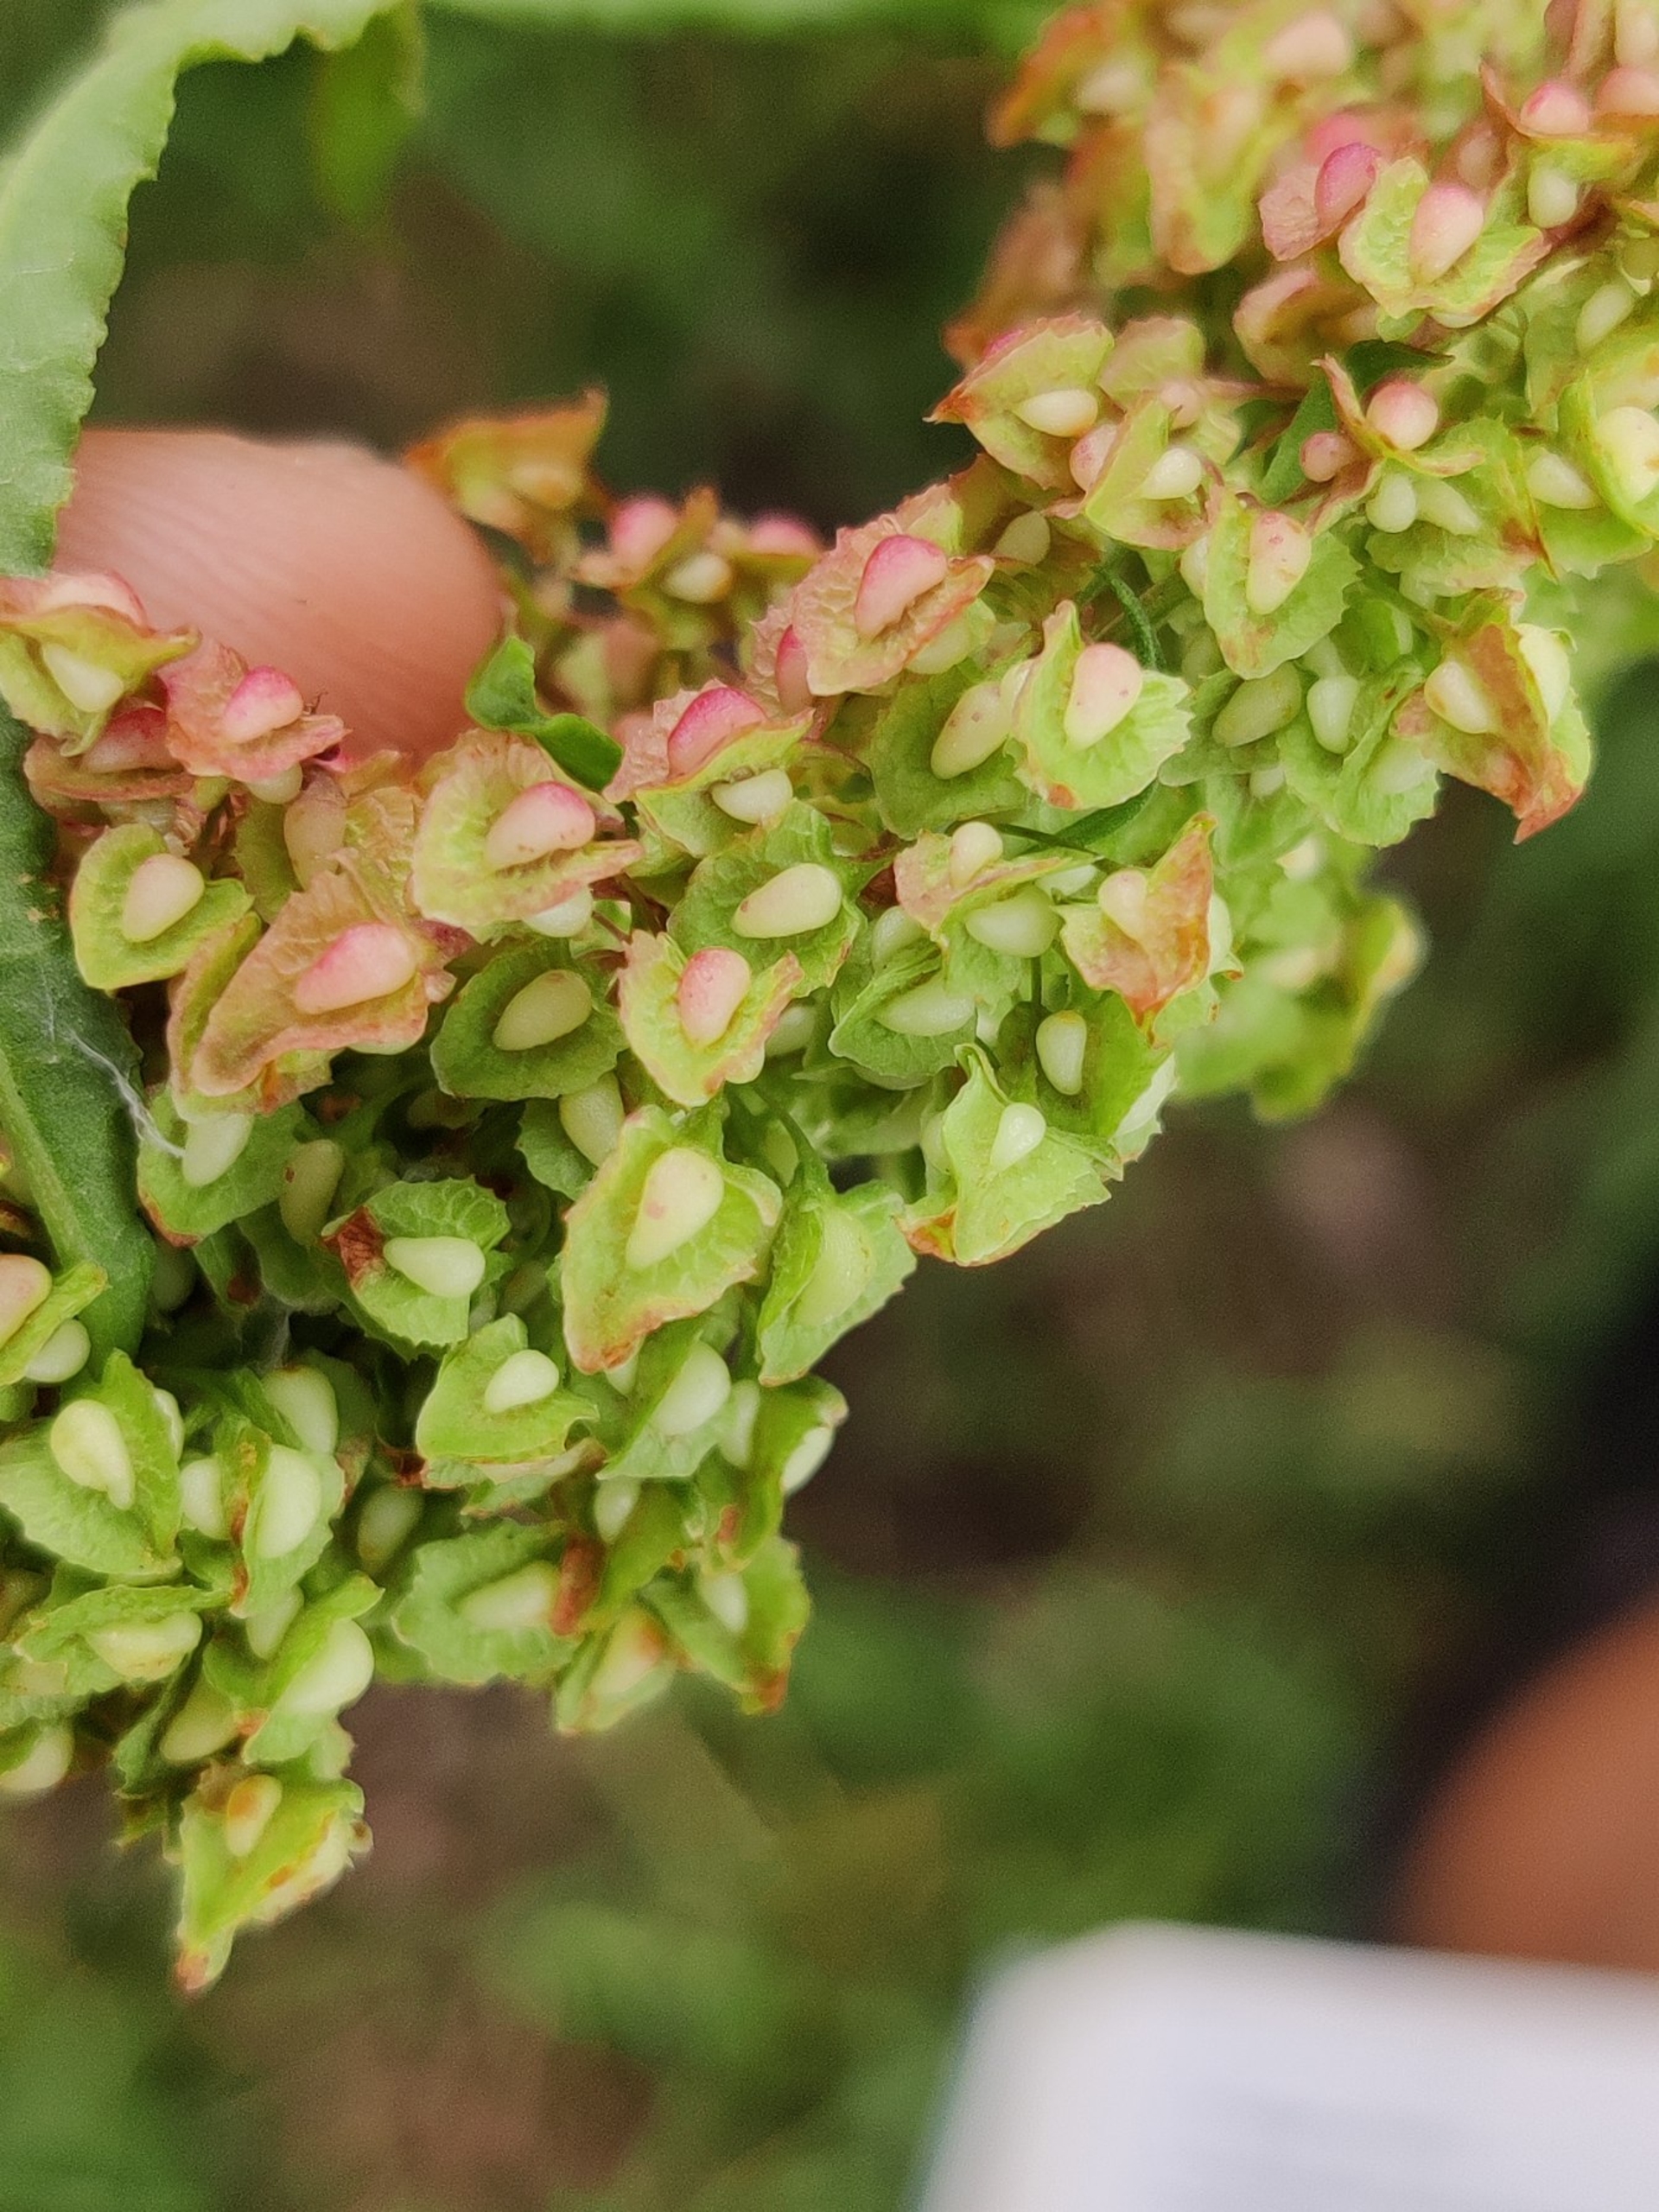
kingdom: Plantae
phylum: Tracheophyta
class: Magnoliopsida
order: Caryophyllales
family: Polygonaceae
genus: Rumex
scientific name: Rumex crispus
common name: Kruset skræppe
